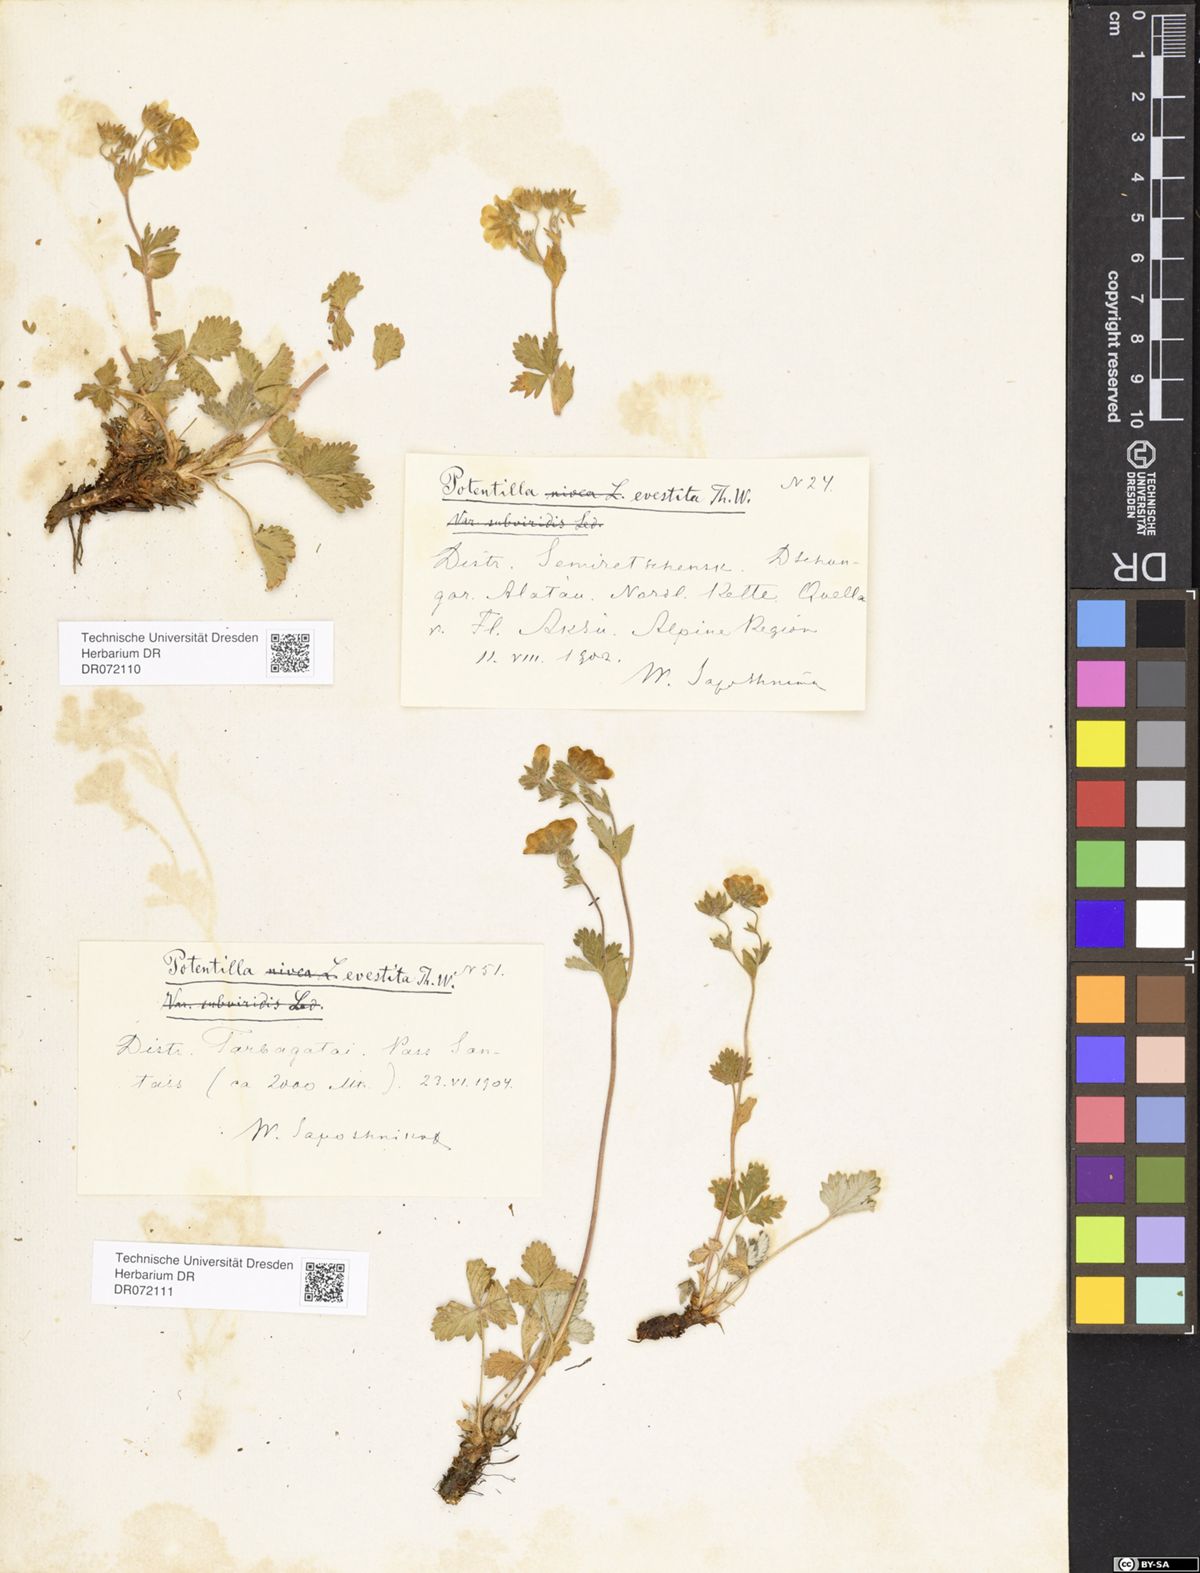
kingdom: Plantae
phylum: Tracheophyta
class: Magnoliopsida
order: Rosales
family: Rosaceae
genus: Potentilla
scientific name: Potentilla evestita
